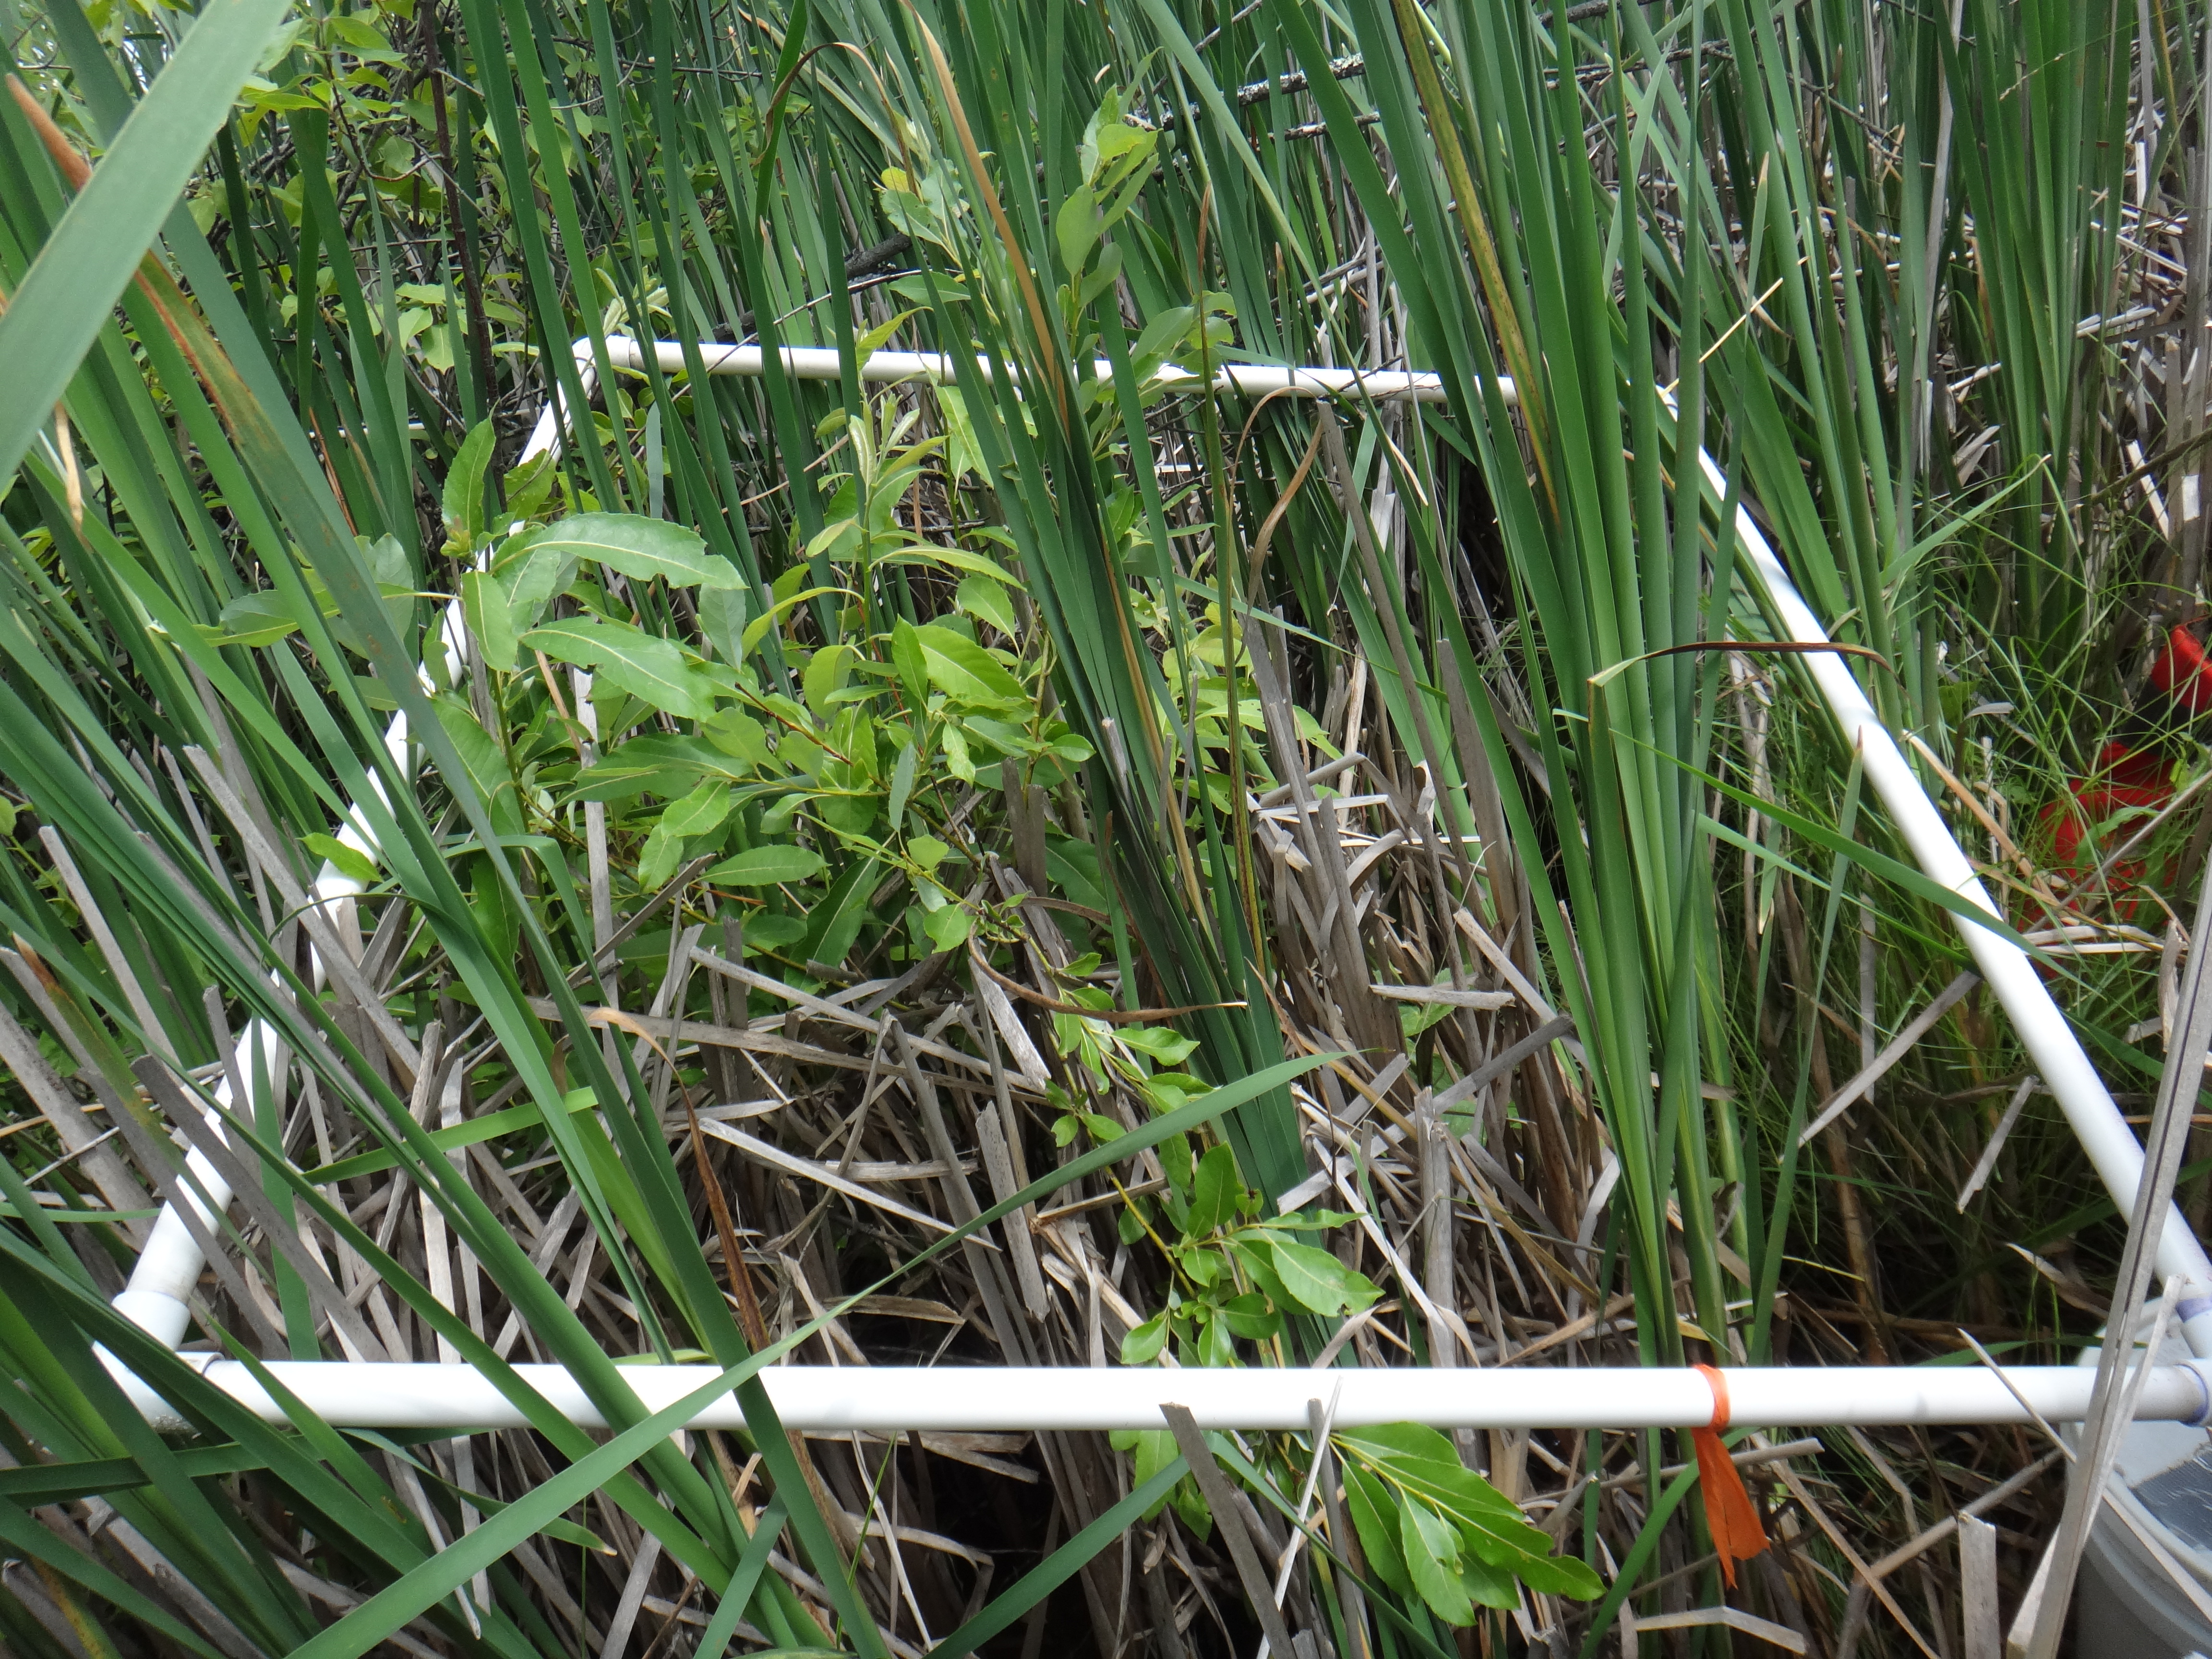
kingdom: Plantae
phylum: Tracheophyta
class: Magnoliopsida
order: Ranunculales
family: Ranunculaceae
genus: Caltha
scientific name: Caltha palustris
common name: Marsh marigold
